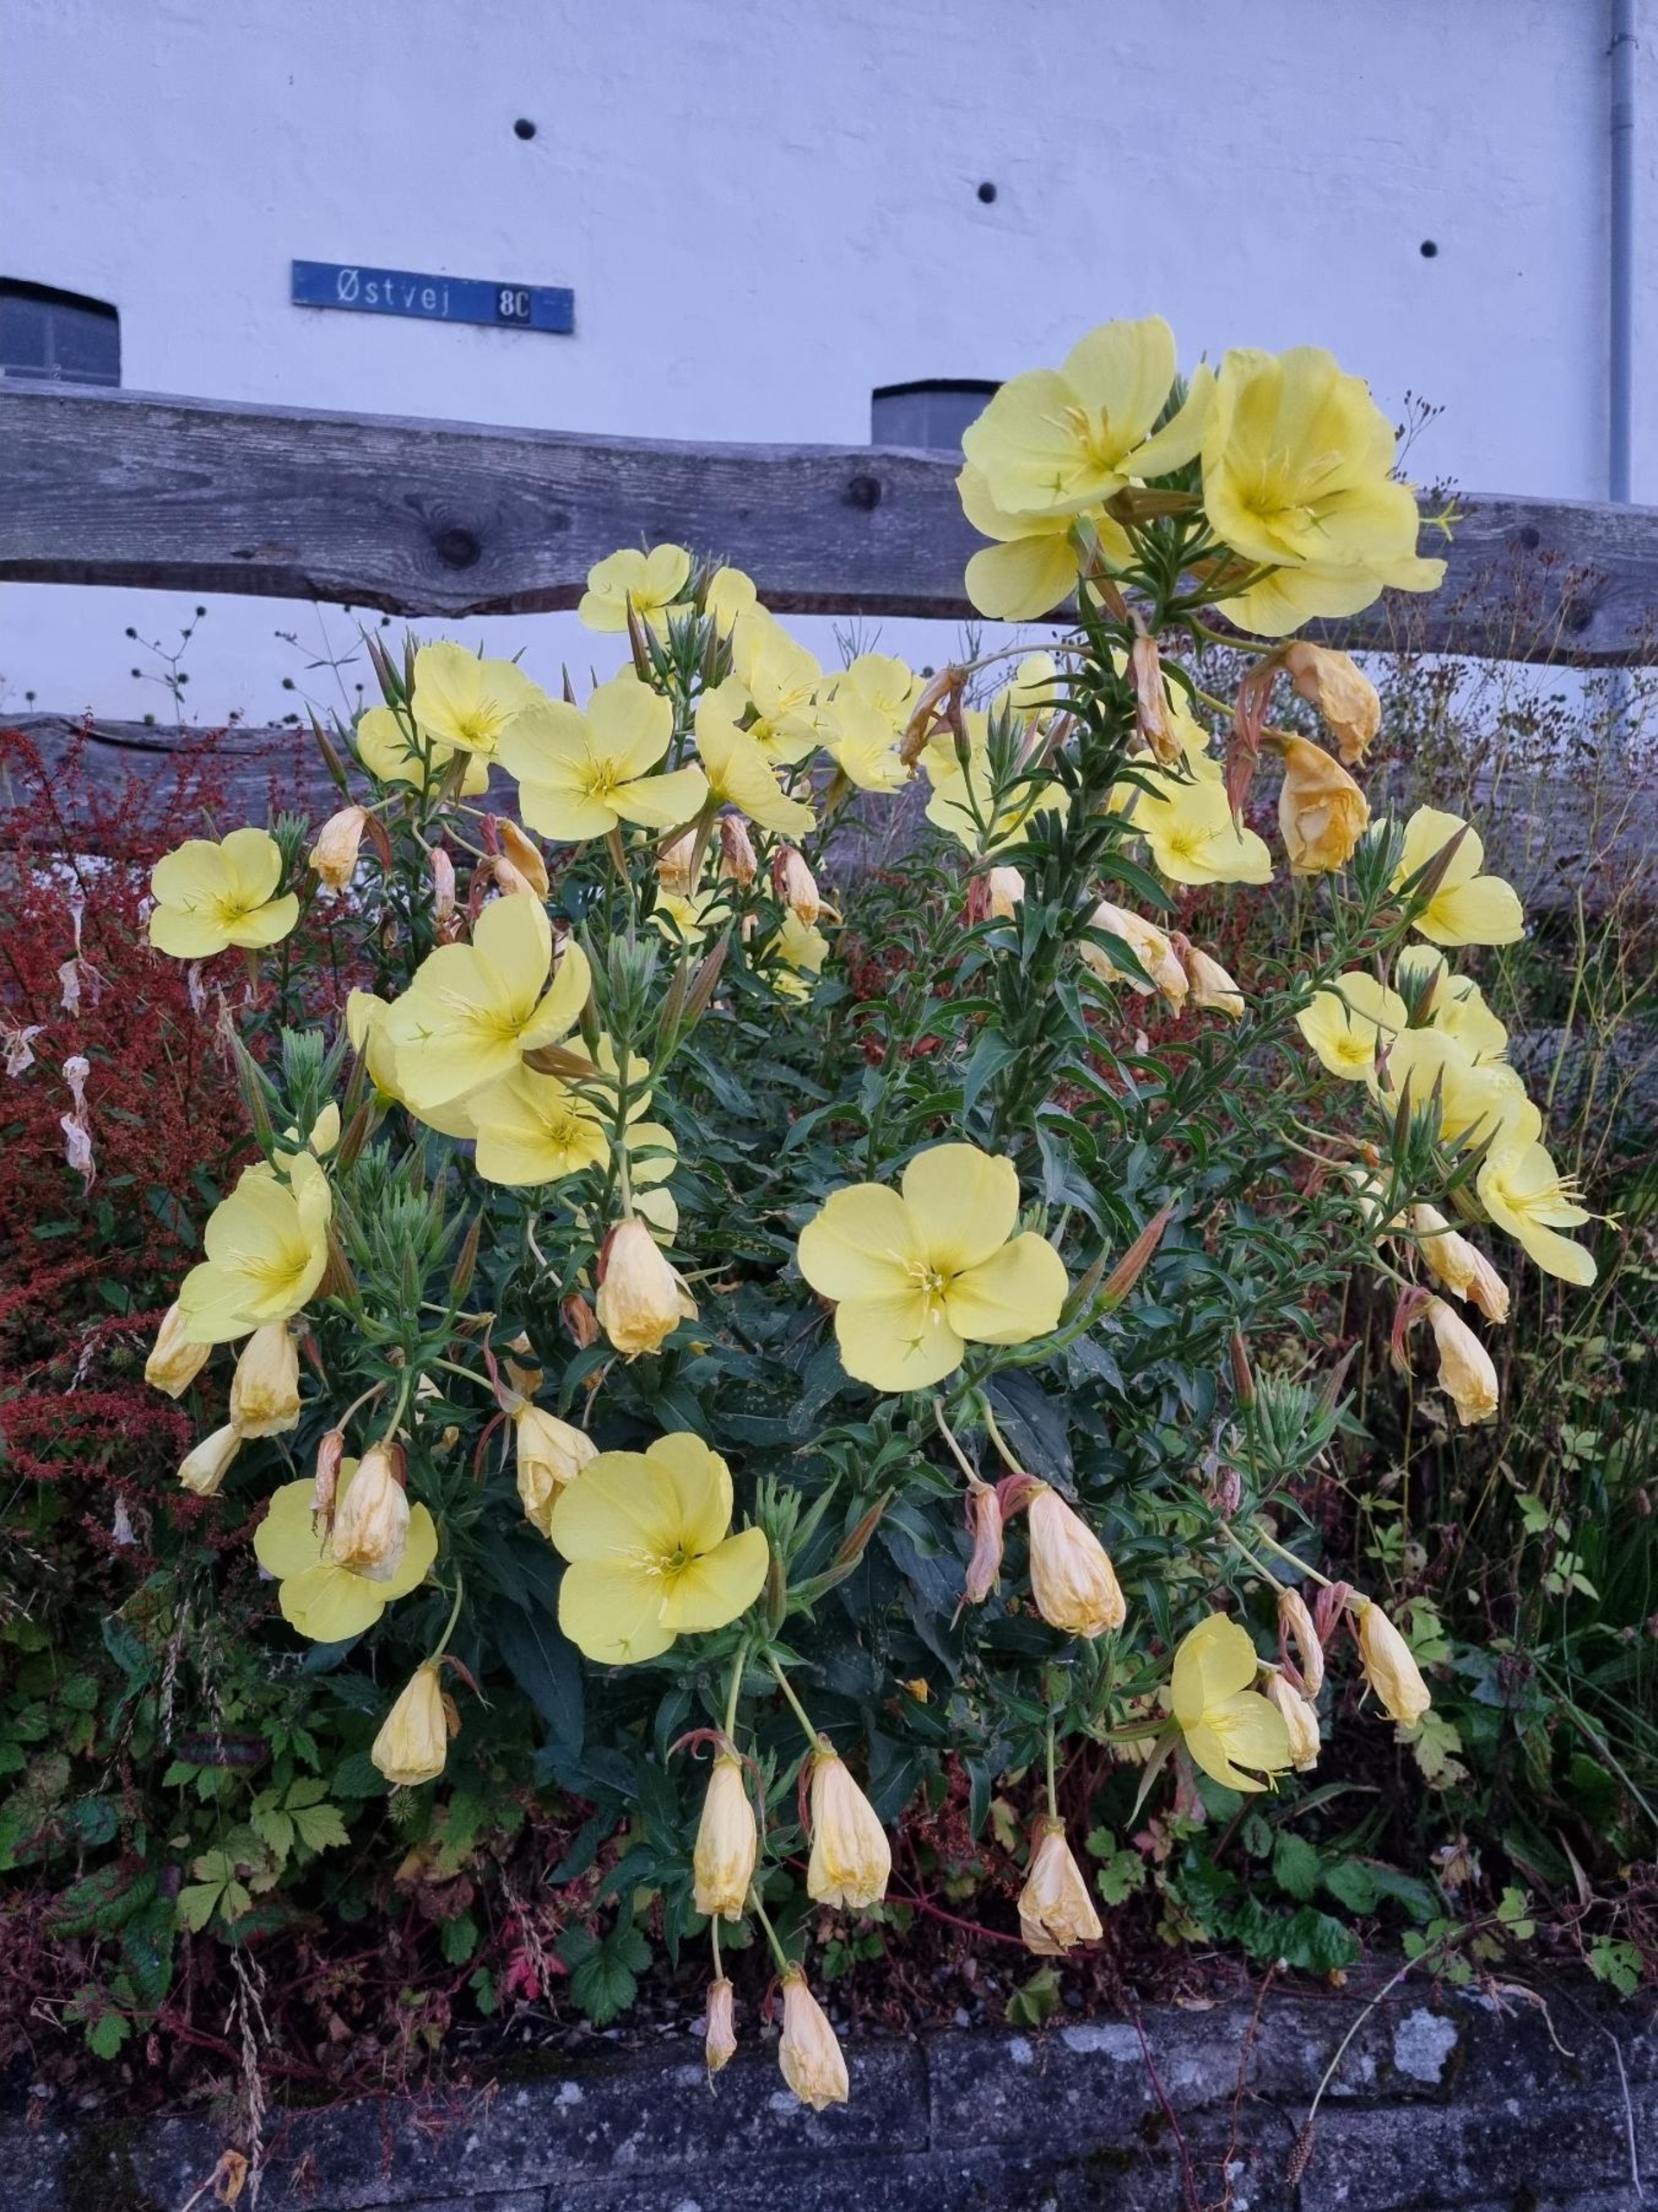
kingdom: Plantae
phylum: Tracheophyta
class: Magnoliopsida
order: Myrtales
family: Onagraceae
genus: Oenothera
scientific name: Oenothera glazioviana
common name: Kæmpe-natlys
